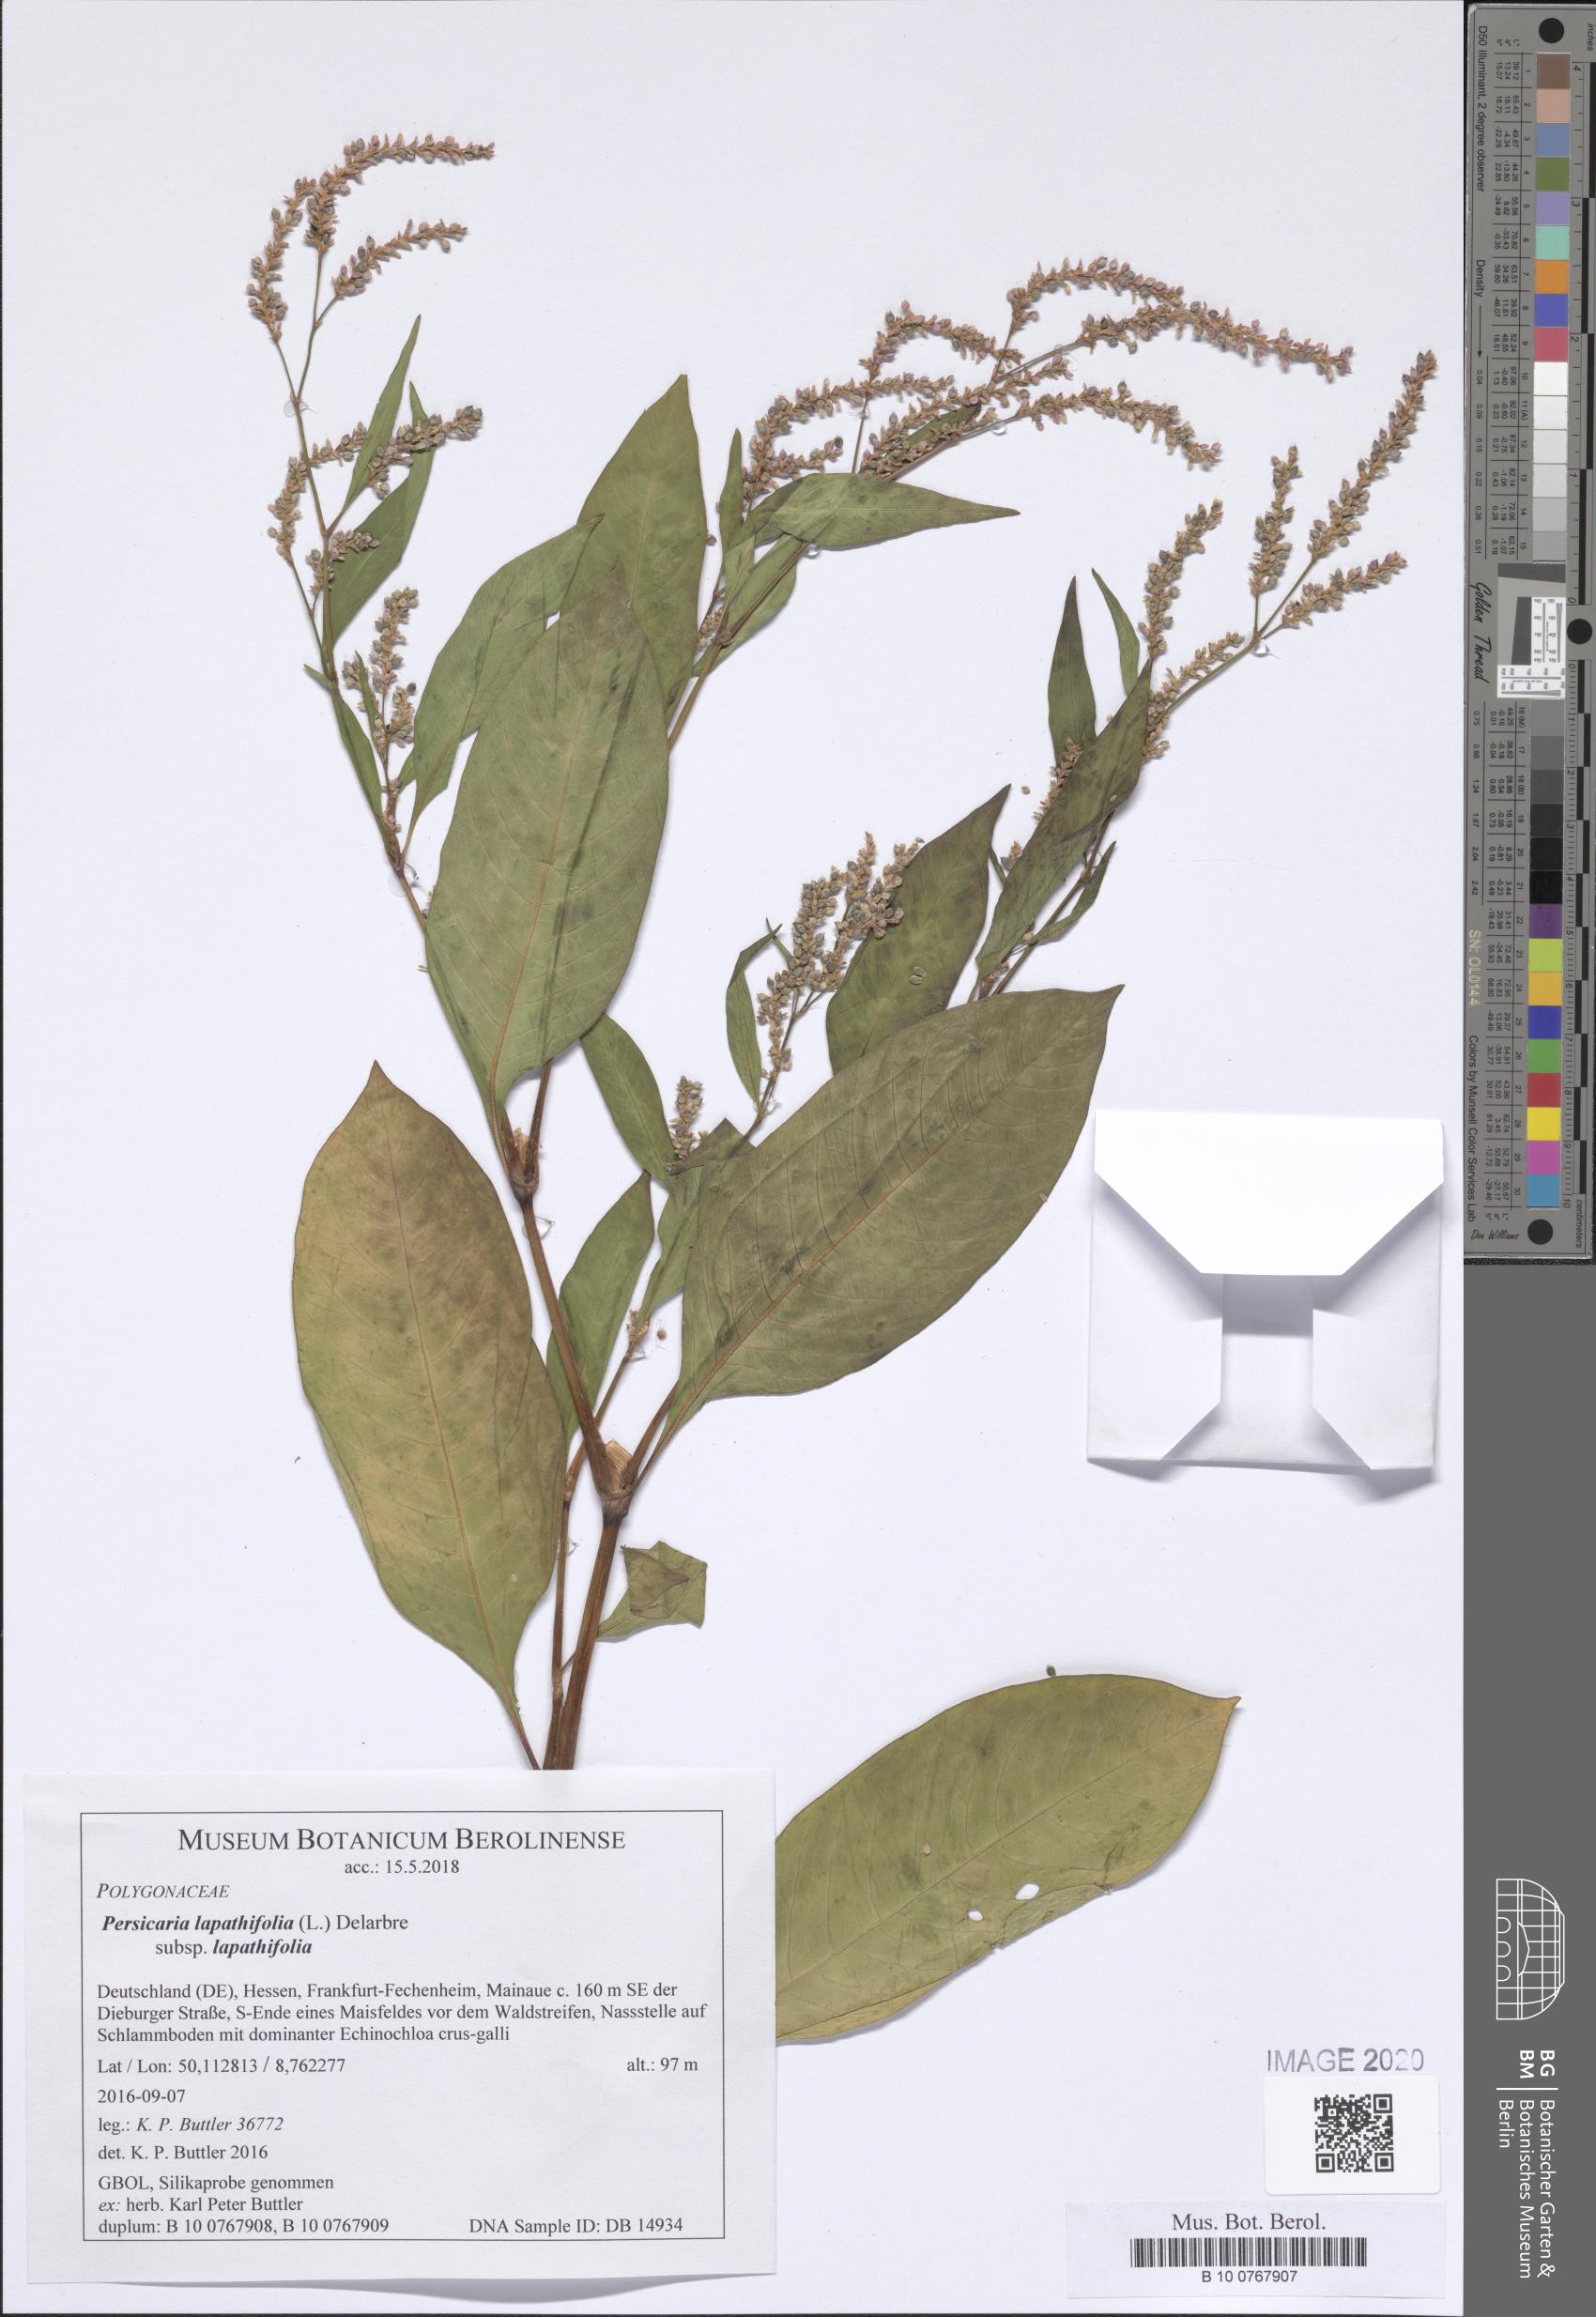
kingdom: Plantae
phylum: Tracheophyta
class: Magnoliopsida
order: Caryophyllales
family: Polygonaceae
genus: Persicaria
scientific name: Persicaria lapathifolia
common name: Curlytop knotweed
